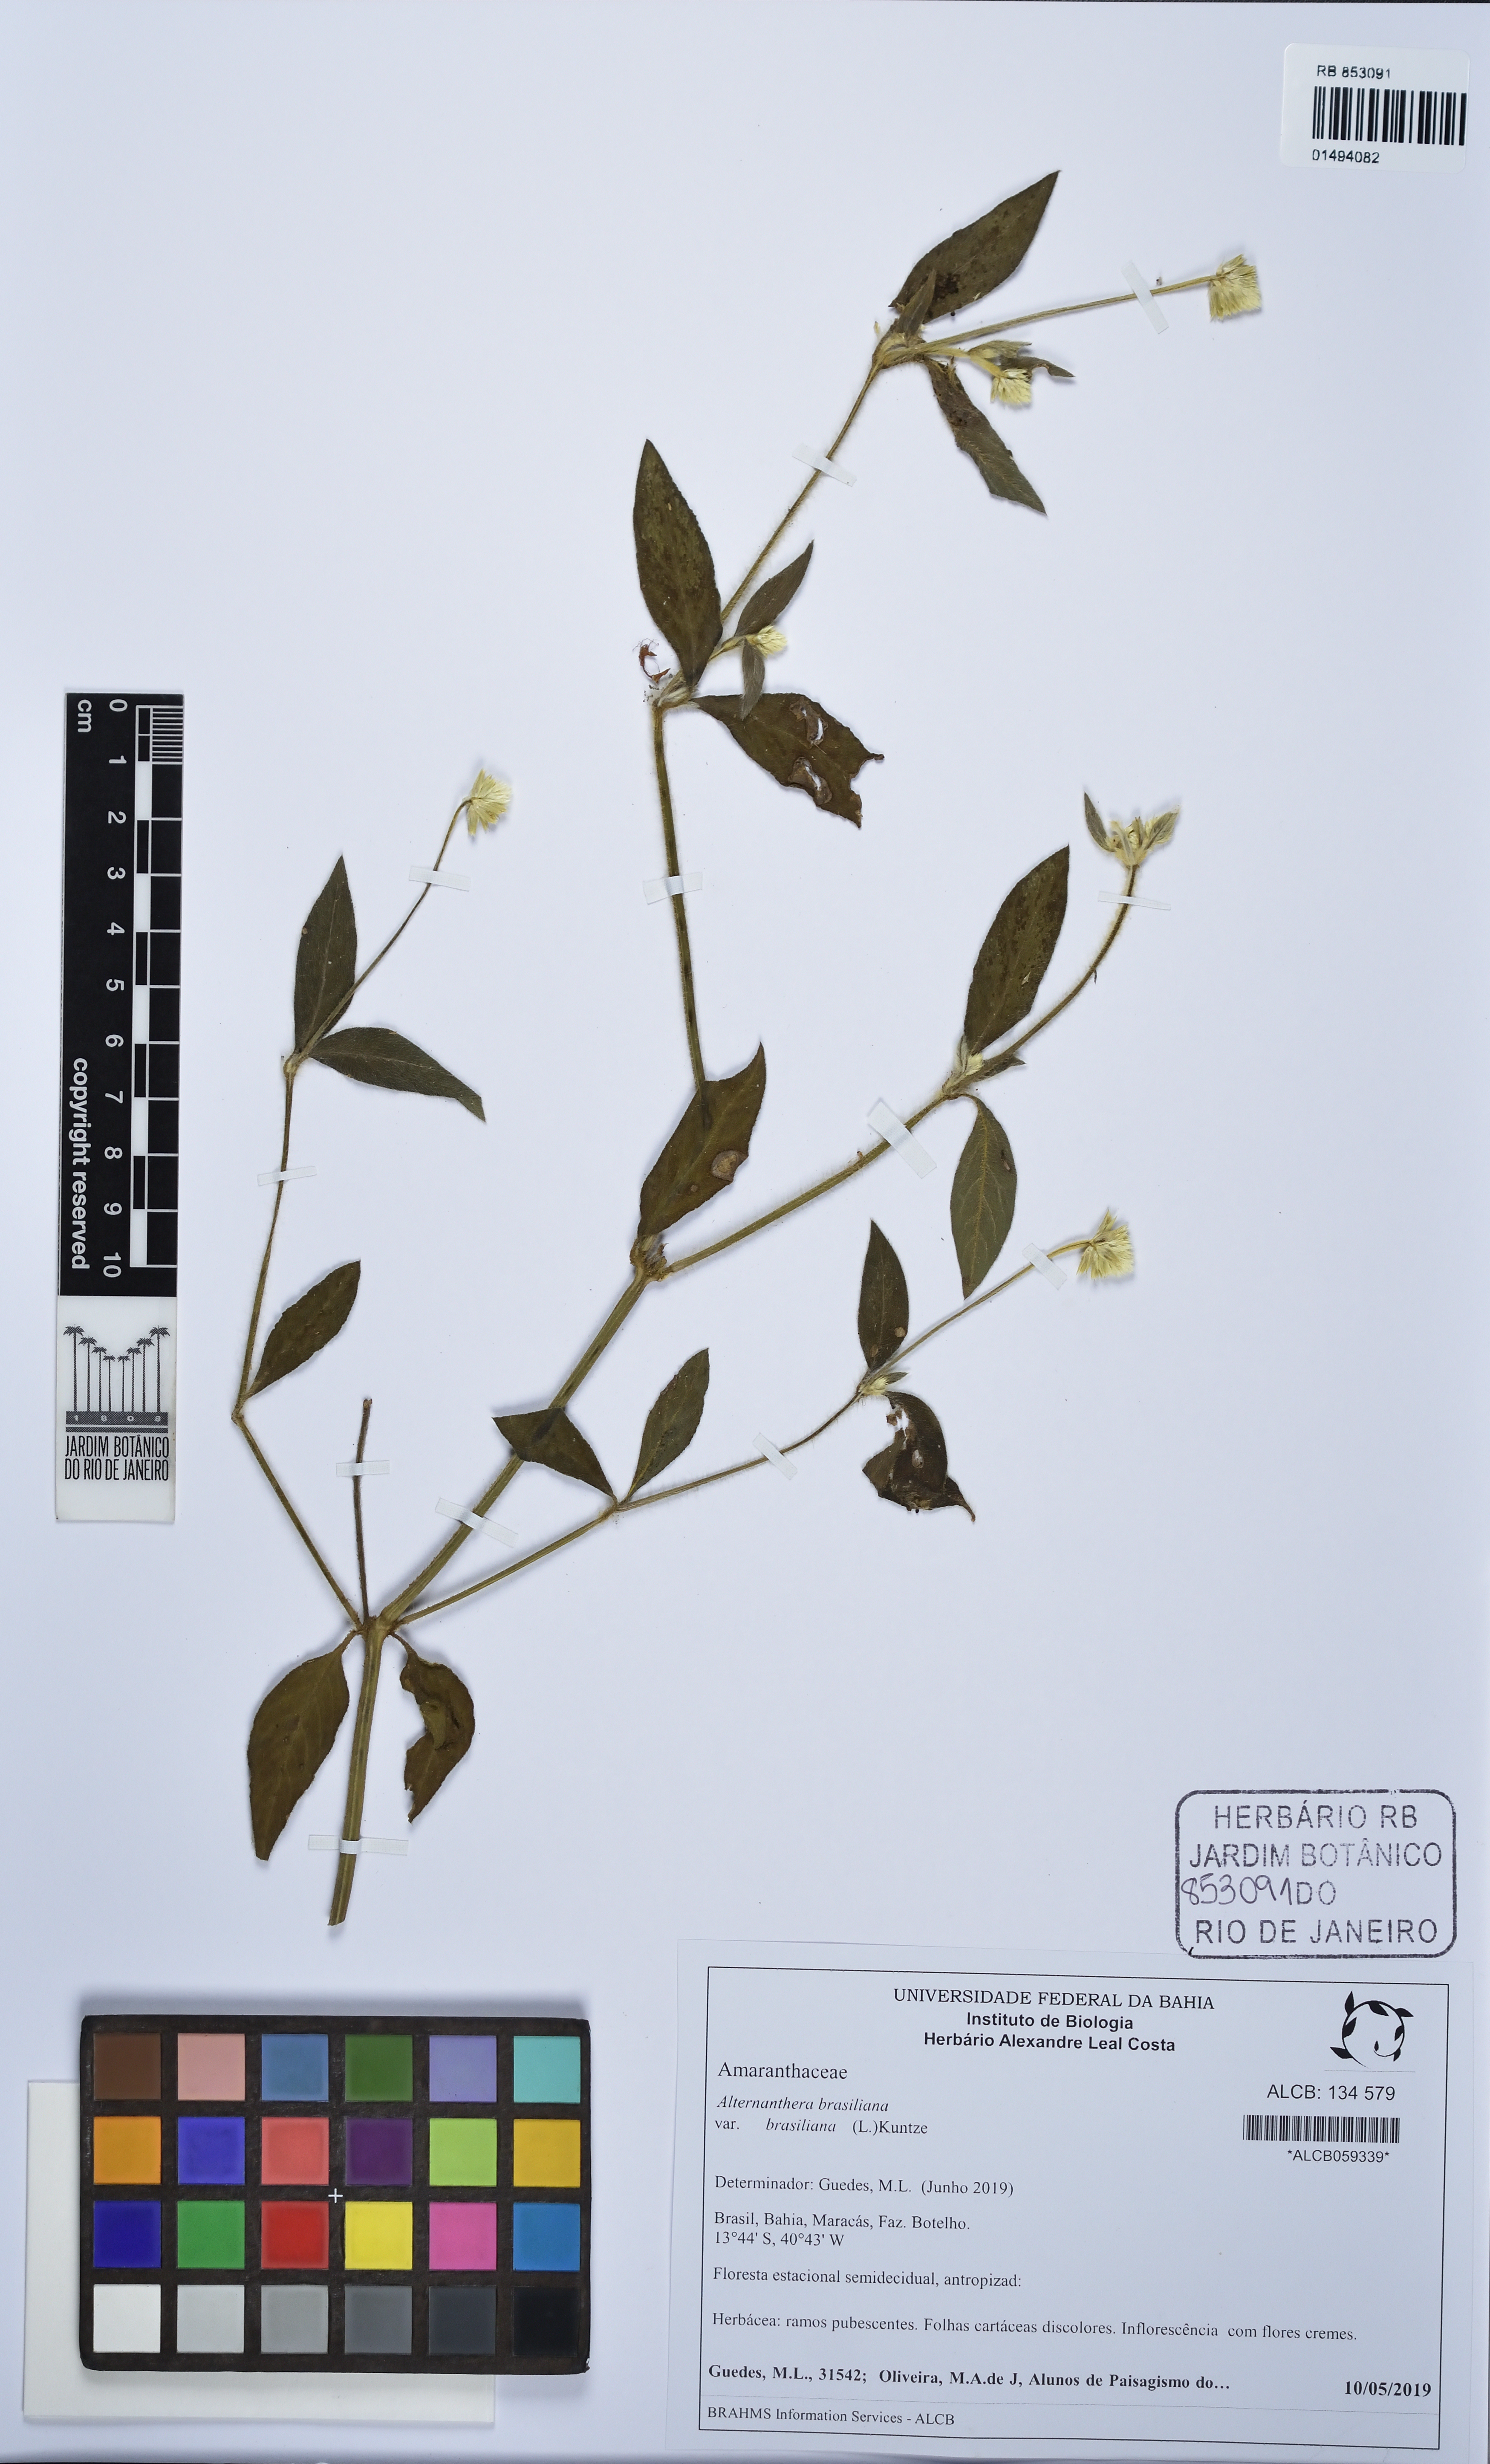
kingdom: Plantae
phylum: Tracheophyta
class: Magnoliopsida
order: Caryophyllales
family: Amaranthaceae
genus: Alternanthera
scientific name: Alternanthera brasiliana
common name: Brazilian joyweed
